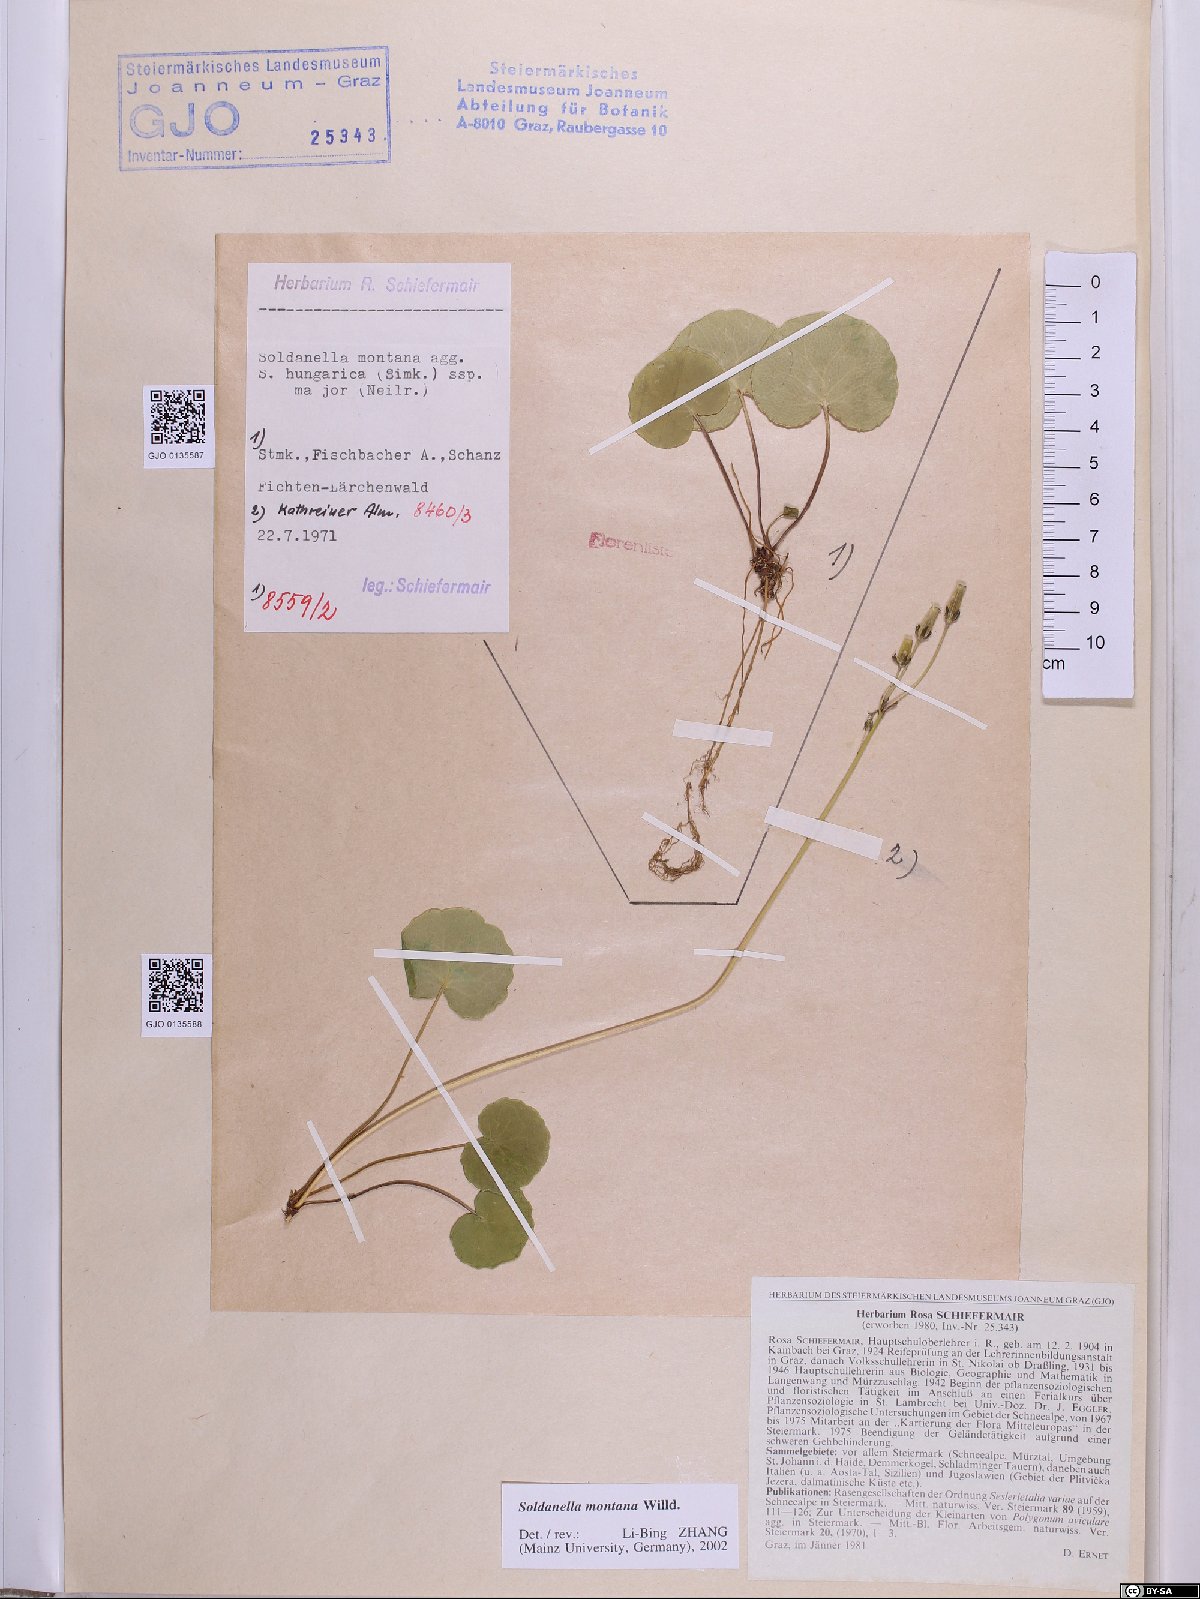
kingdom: Plantae
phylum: Tracheophyta
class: Magnoliopsida
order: Ericales
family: Primulaceae
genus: Soldanella
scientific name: Soldanella montana
